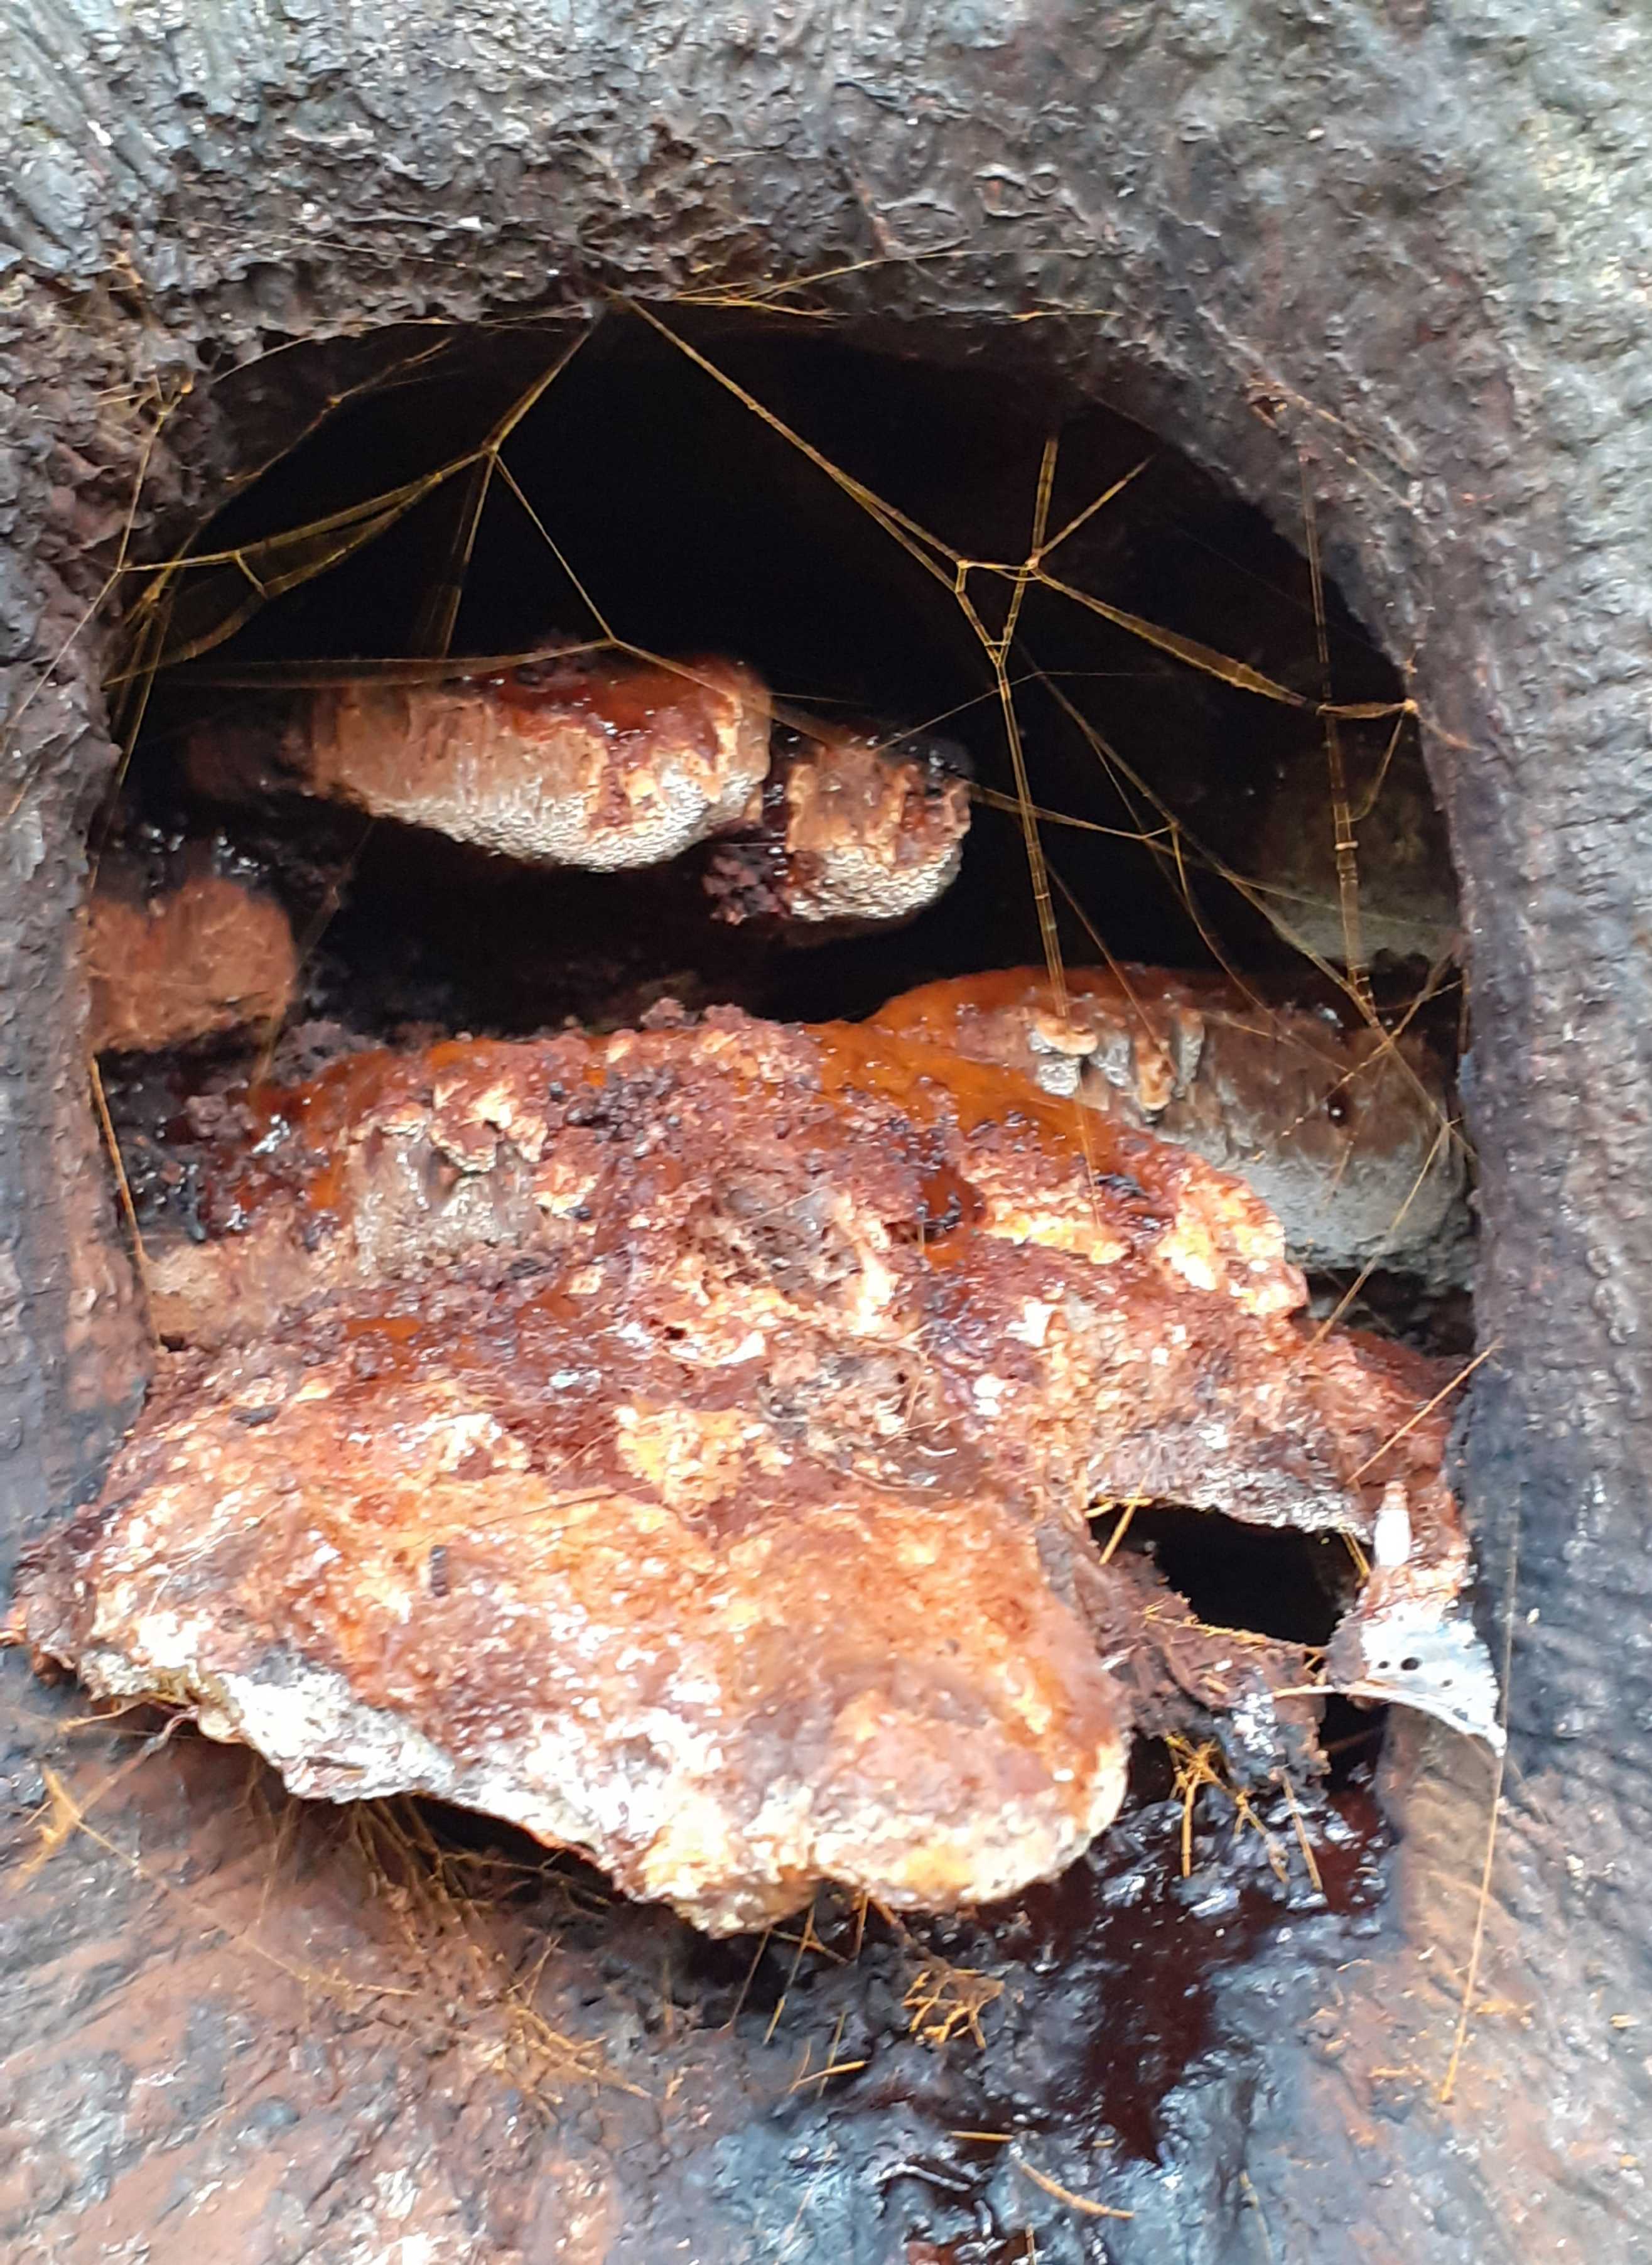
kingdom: Fungi
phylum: Basidiomycota
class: Agaricomycetes
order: Hymenochaetales
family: Hymenochaetaceae
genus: Inonotus
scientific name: Inonotus cuticularis
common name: kroghåret spejlporesvamp
